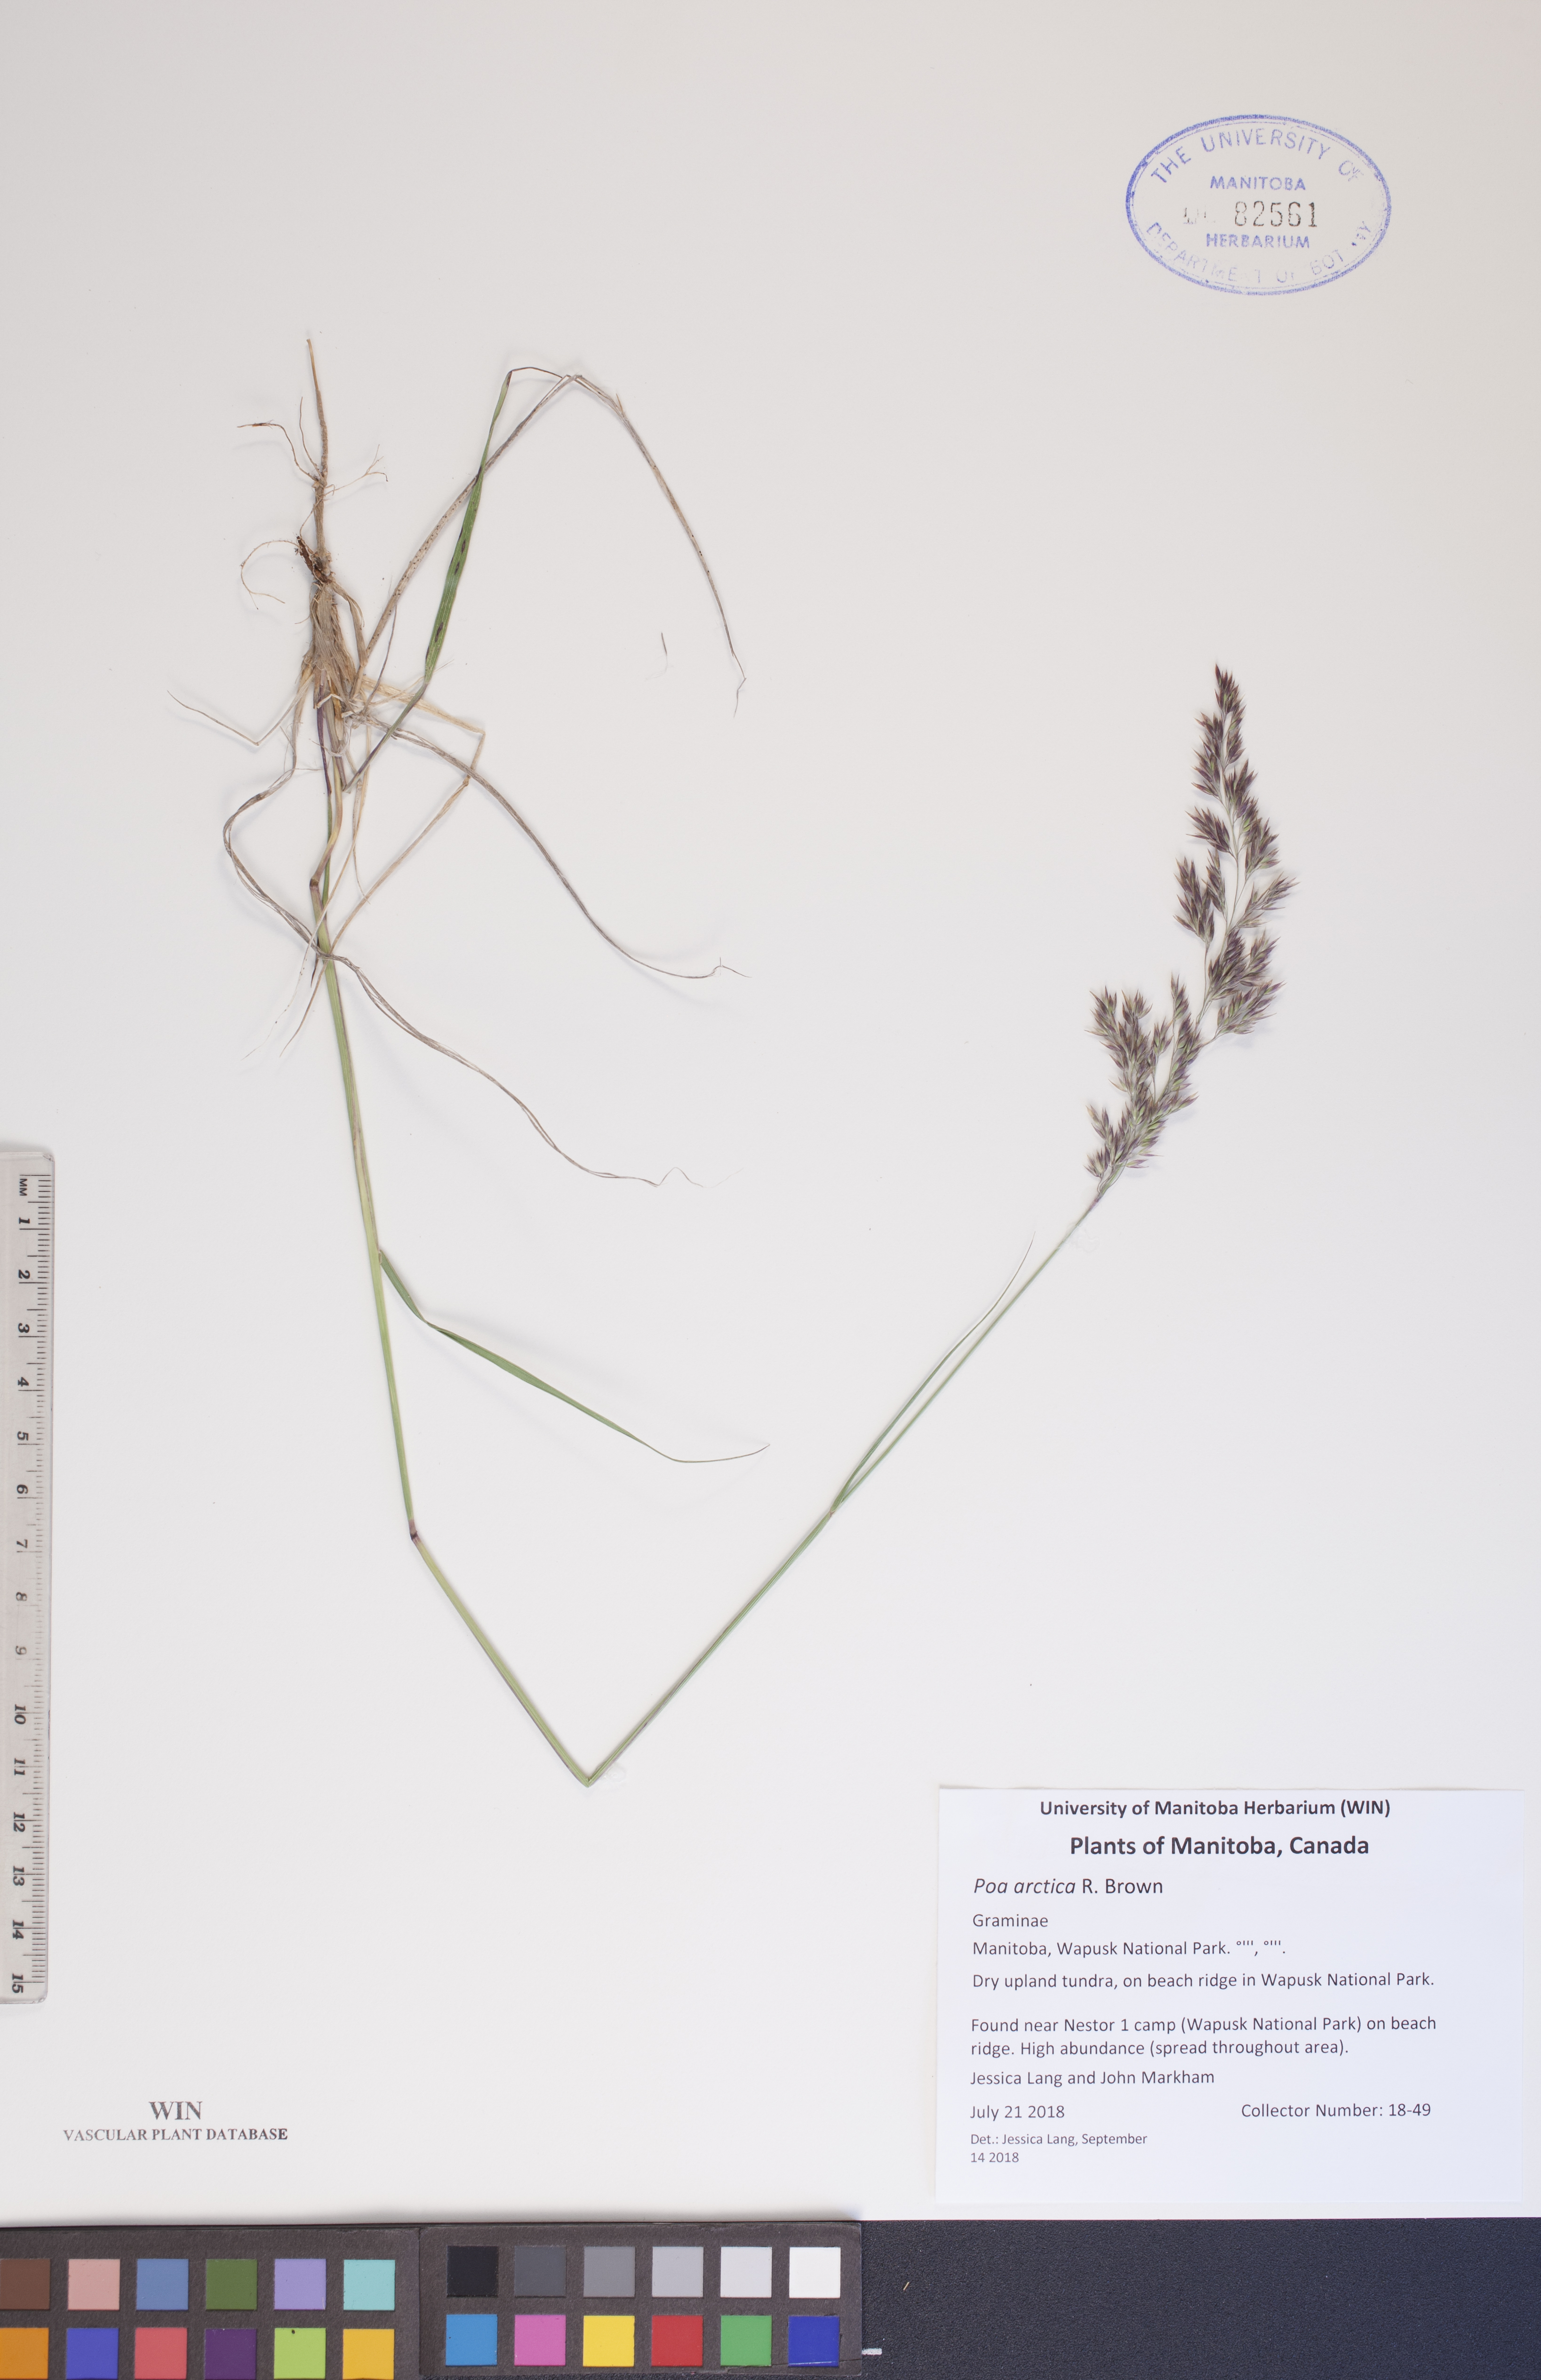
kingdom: Plantae
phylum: Tracheophyta
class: Liliopsida
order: Poales
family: Poaceae
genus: Poa
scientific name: Poa arctica
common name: Arctic bluegrass
